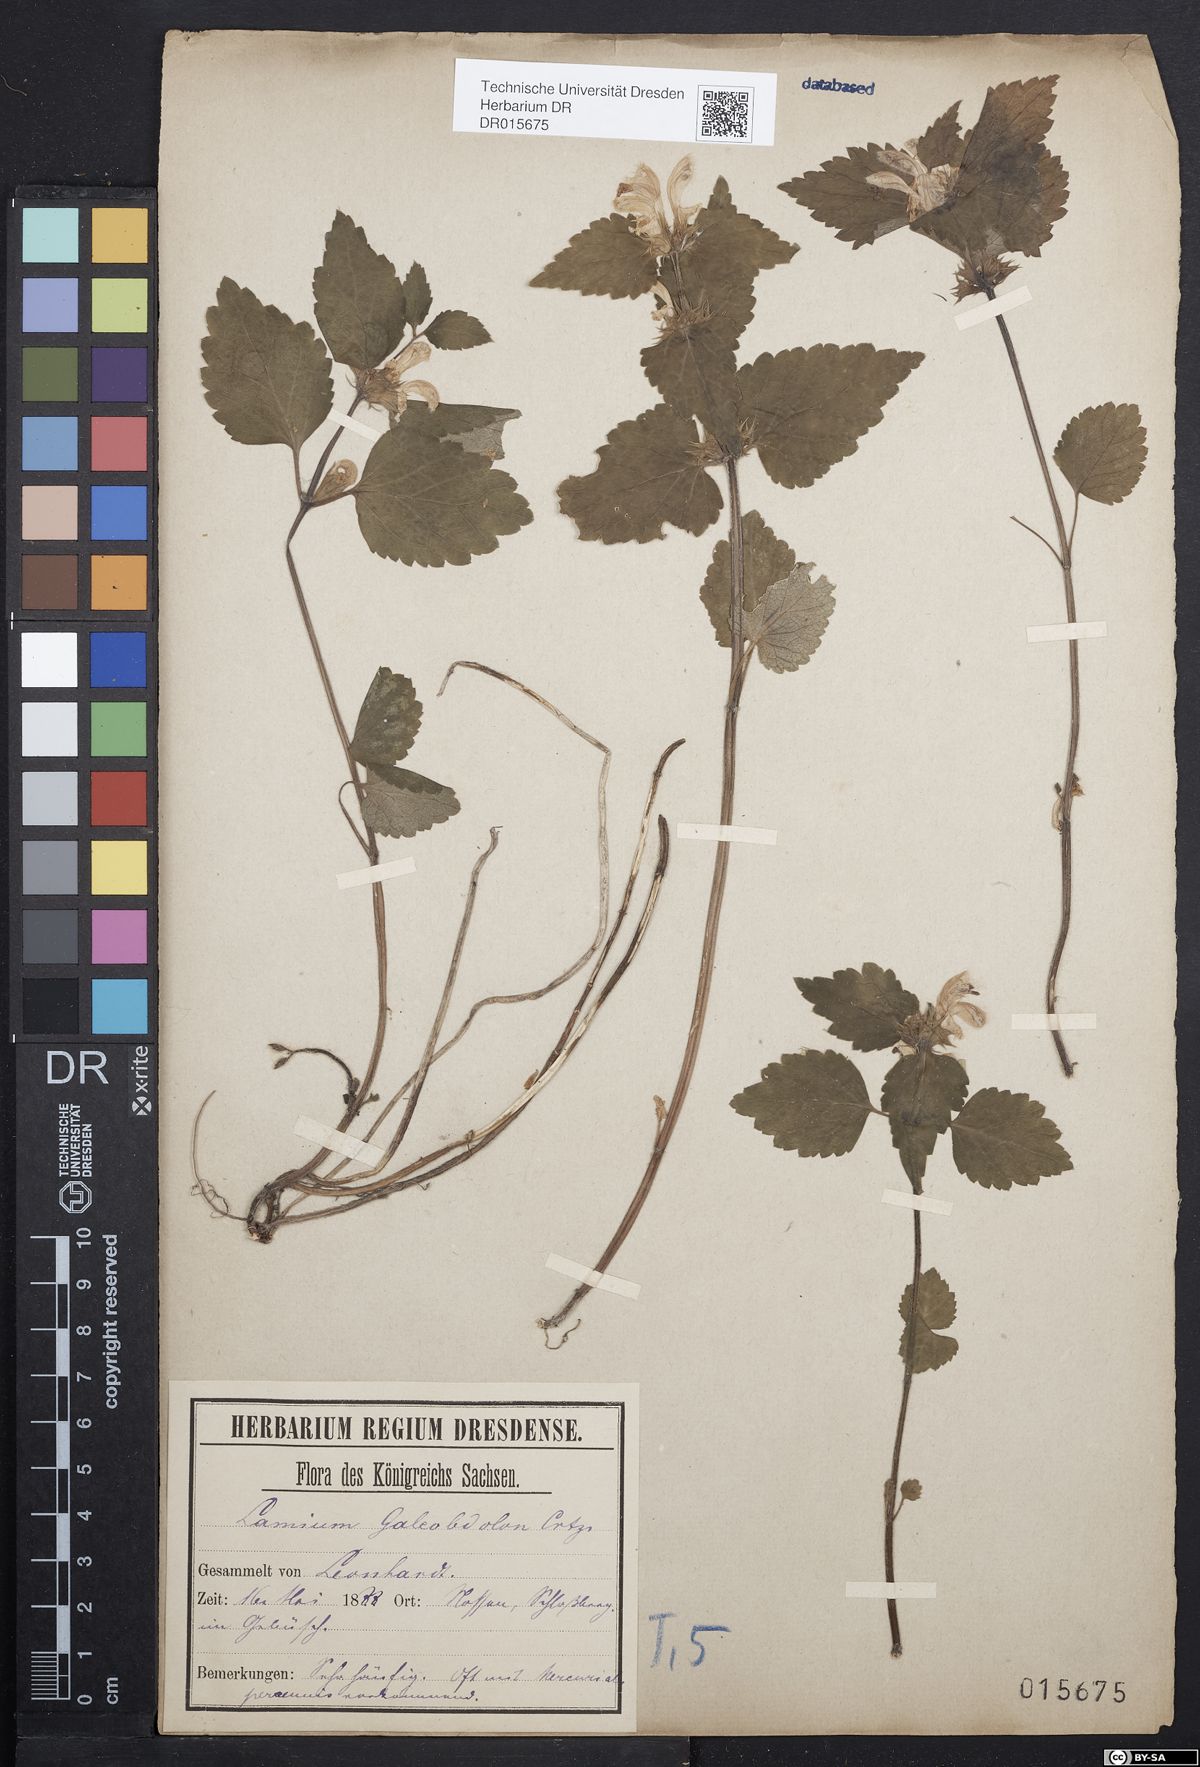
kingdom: Plantae
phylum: Tracheophyta
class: Magnoliopsida
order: Lamiales
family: Lamiaceae
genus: Lamium
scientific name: Lamium galeobdolon
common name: Yellow archangel
